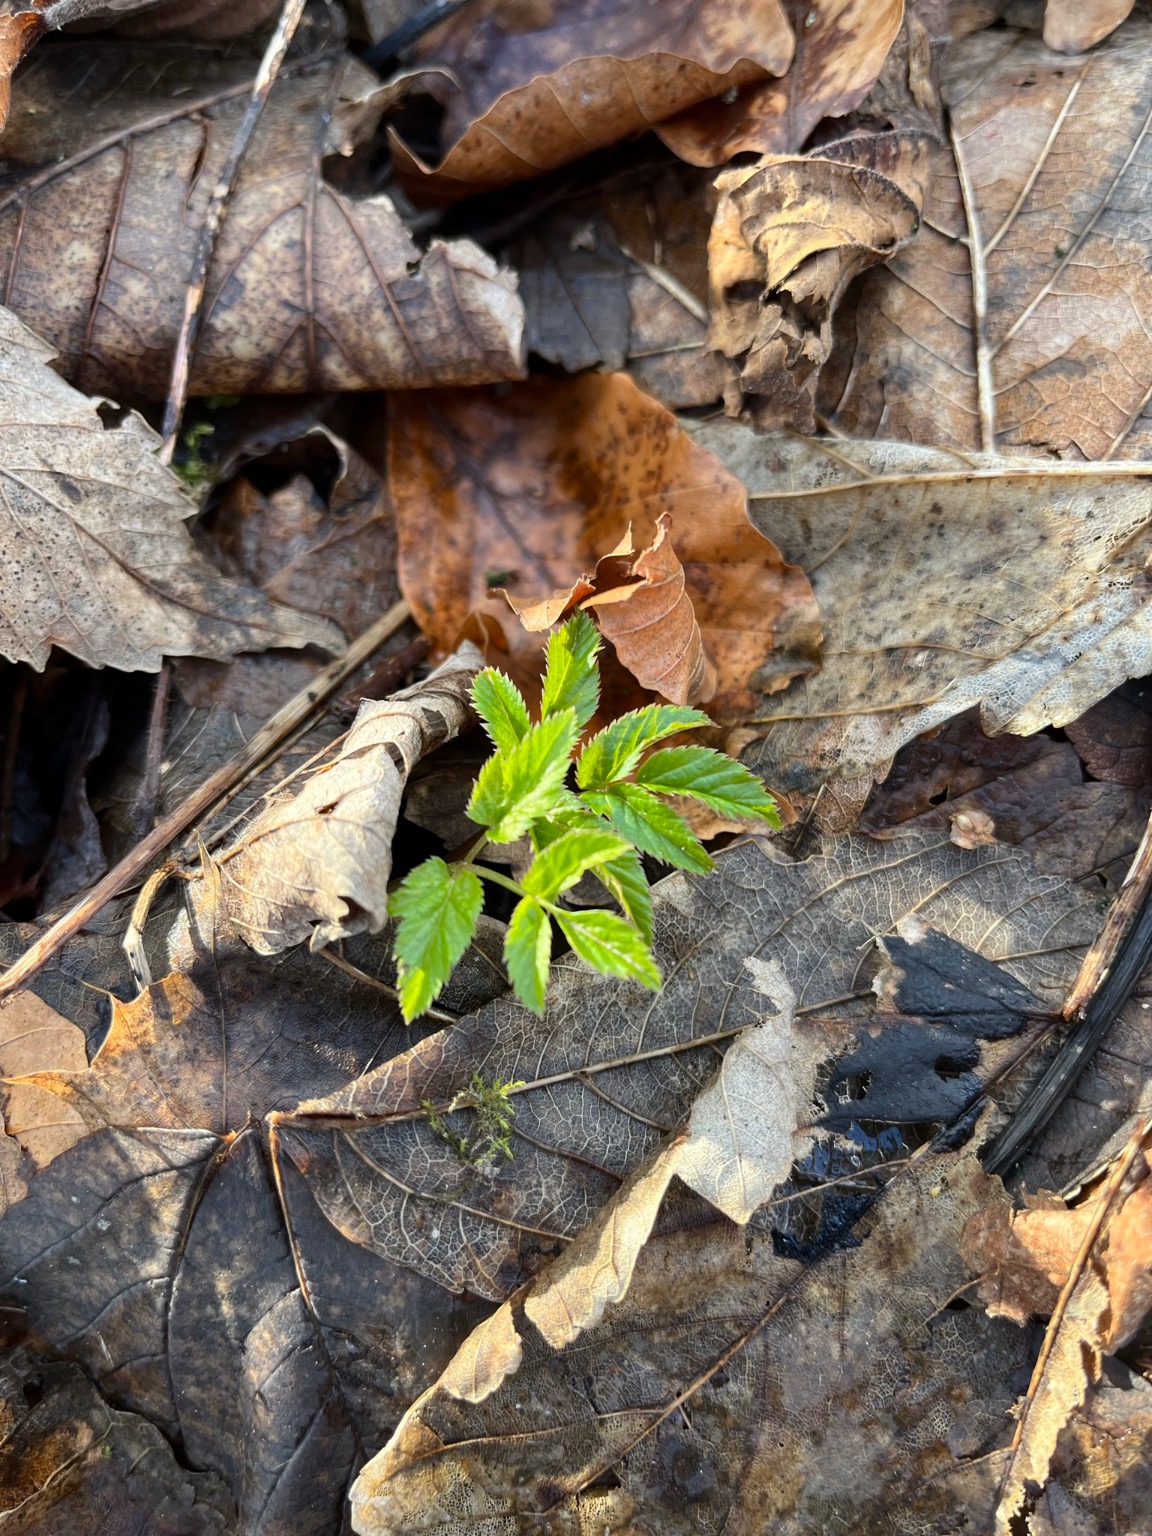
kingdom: Plantae
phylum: Tracheophyta
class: Magnoliopsida
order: Apiales
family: Apiaceae
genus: Aegopodium
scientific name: Aegopodium podagraria
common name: Skvalderkål
